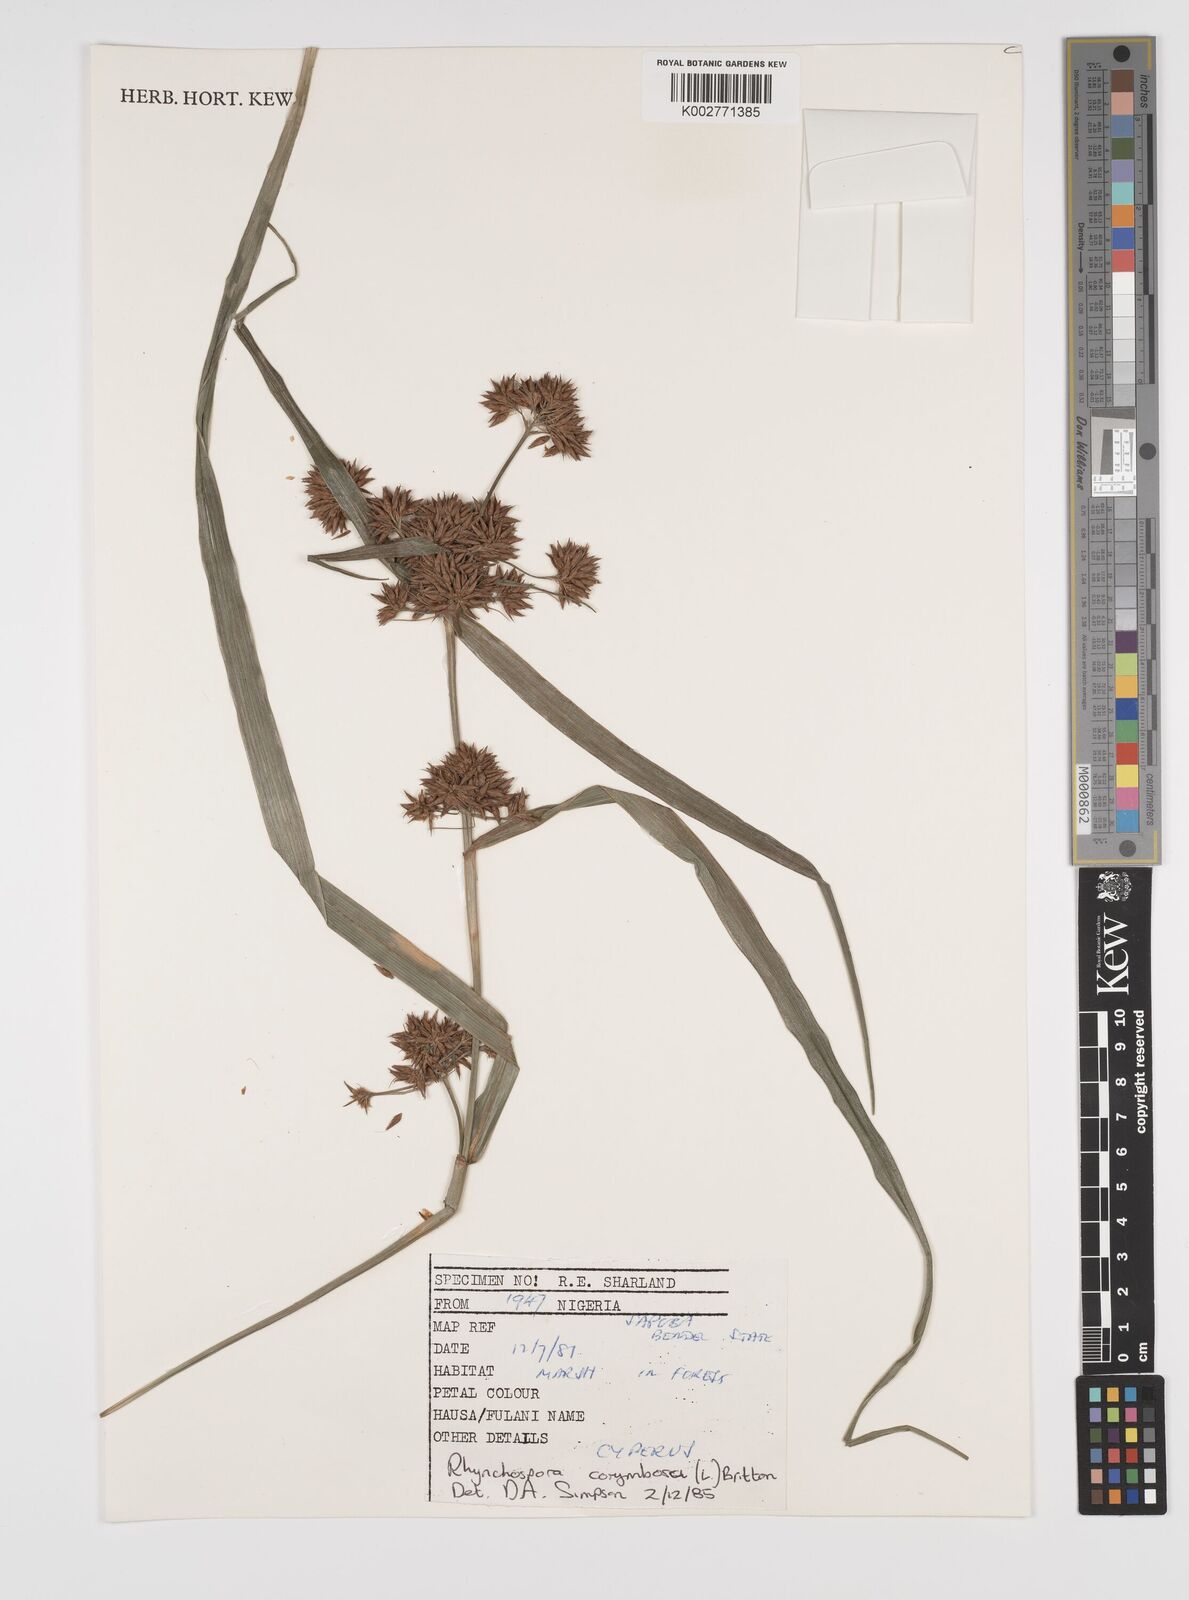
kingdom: Plantae
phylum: Tracheophyta
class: Liliopsida
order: Poales
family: Cyperaceae
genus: Rhynchospora
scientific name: Rhynchospora corymbosa
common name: Golden beak sedge
